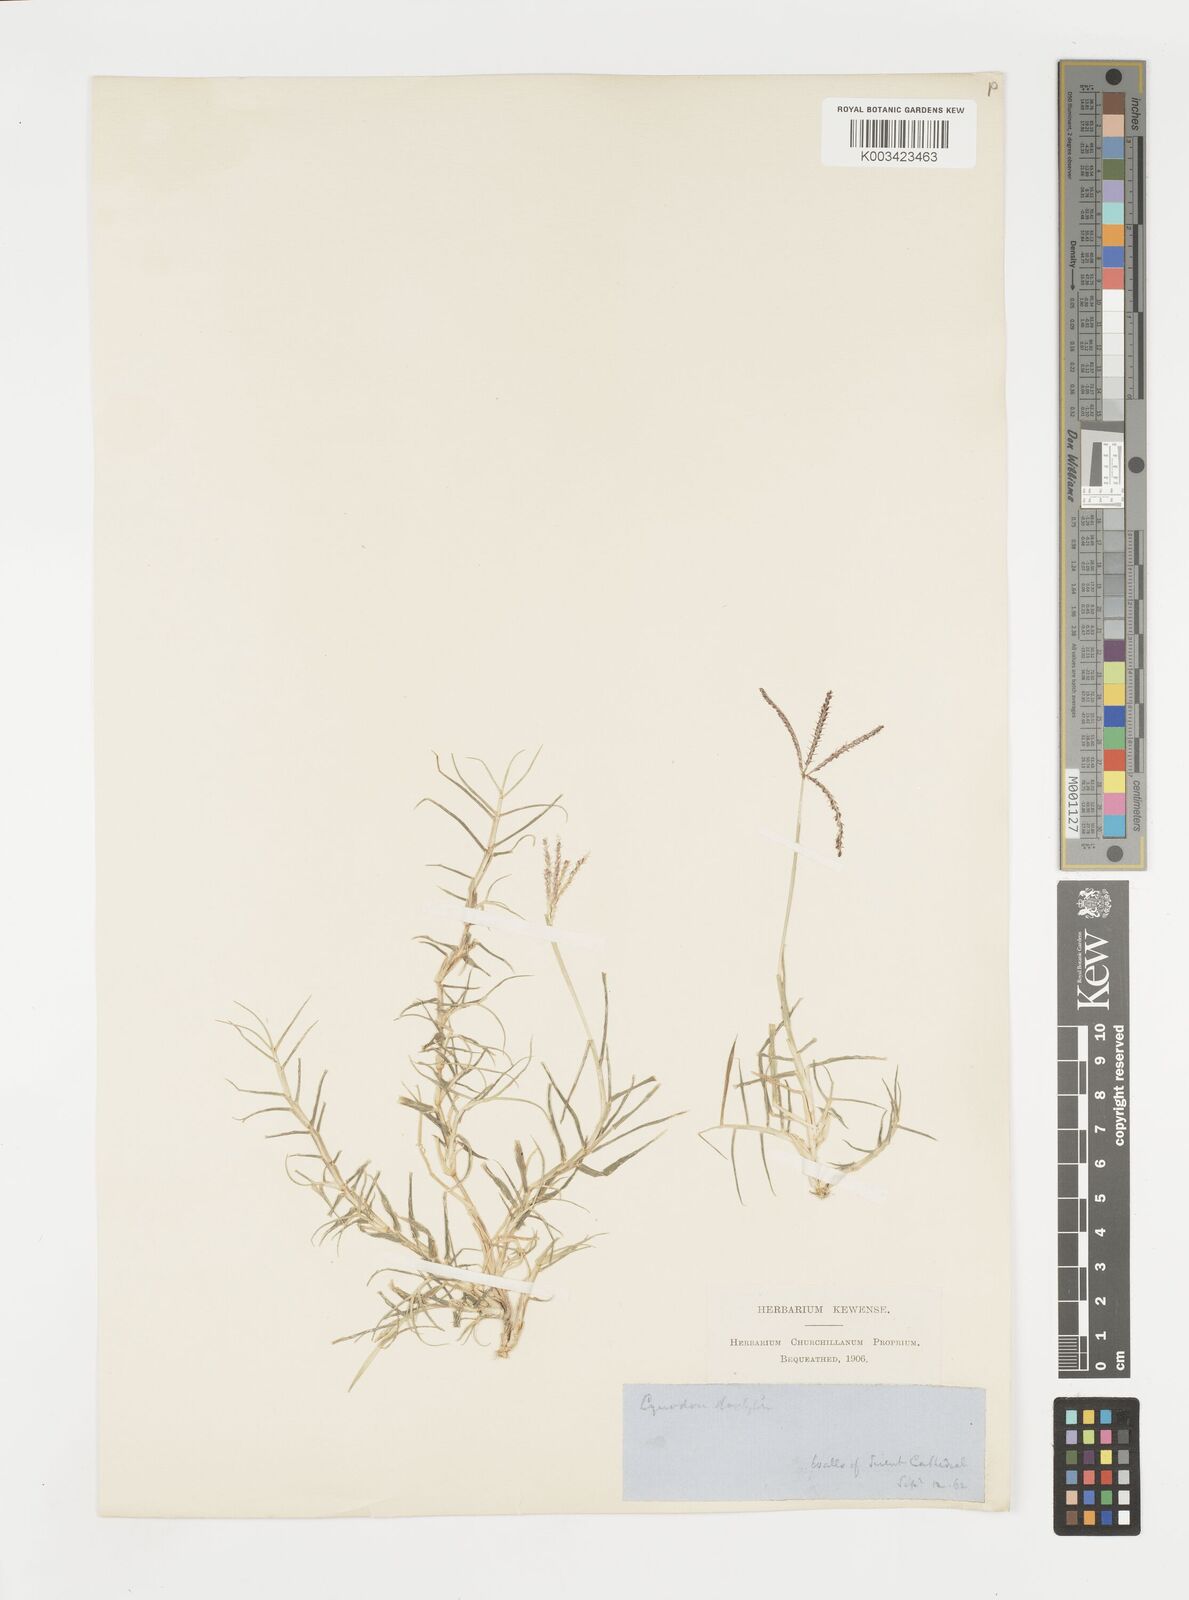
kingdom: Plantae
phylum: Tracheophyta
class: Liliopsida
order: Poales
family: Poaceae
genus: Cynodon
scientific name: Cynodon dactylon
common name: Bermuda grass
